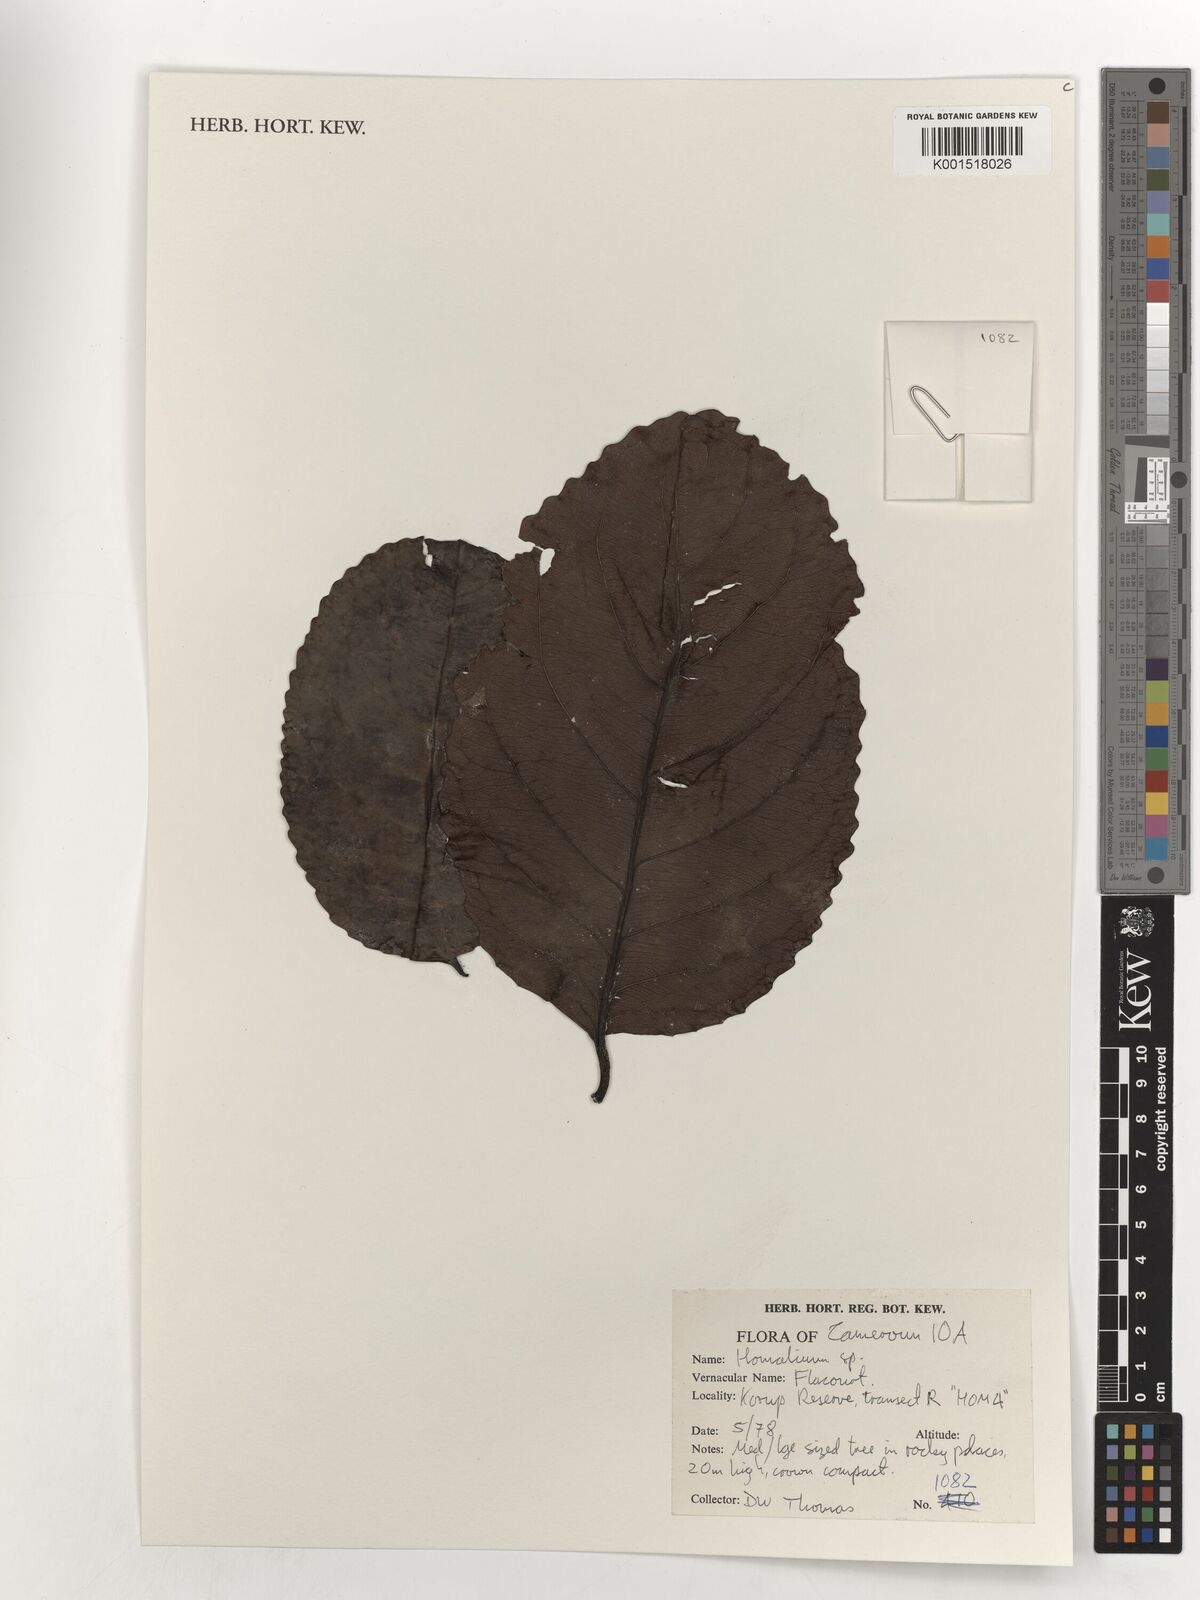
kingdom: Plantae
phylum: Tracheophyta
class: Magnoliopsida
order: Malpighiales
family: Salicaceae
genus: Homalium
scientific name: Homalium
